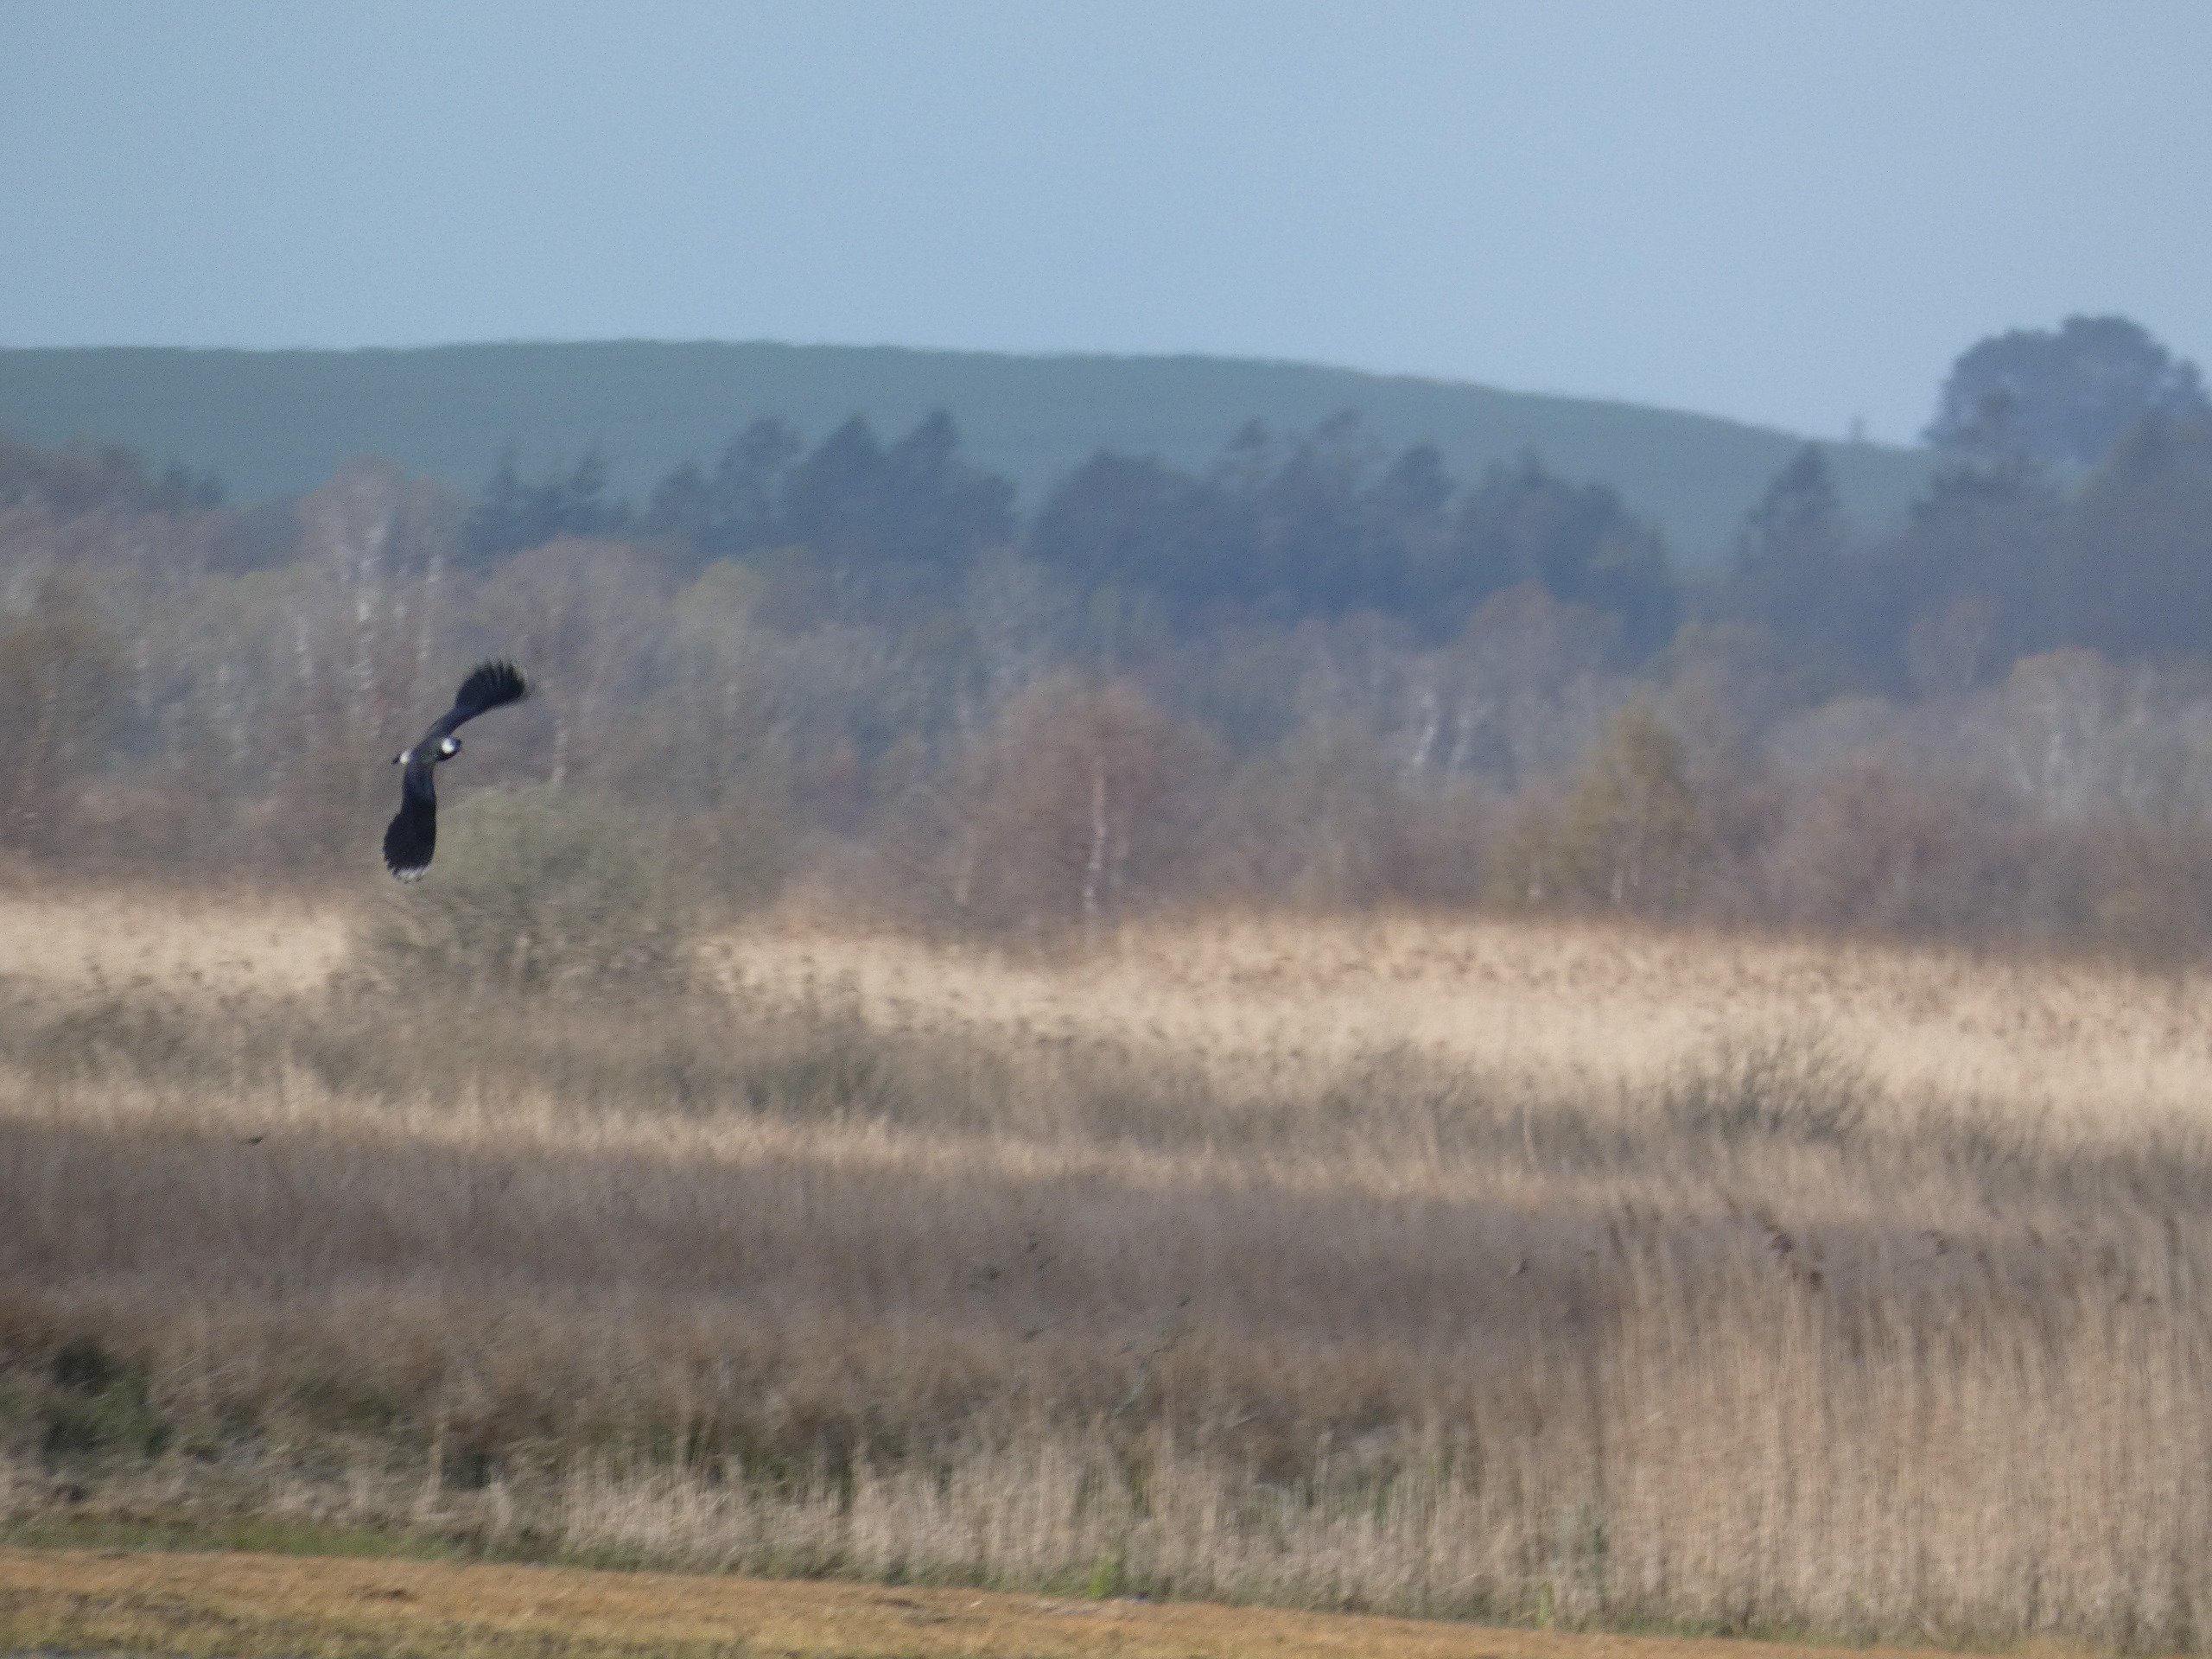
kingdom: Animalia
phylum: Chordata
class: Aves
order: Charadriiformes
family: Charadriidae
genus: Vanellus
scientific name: Vanellus vanellus
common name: Vibe
